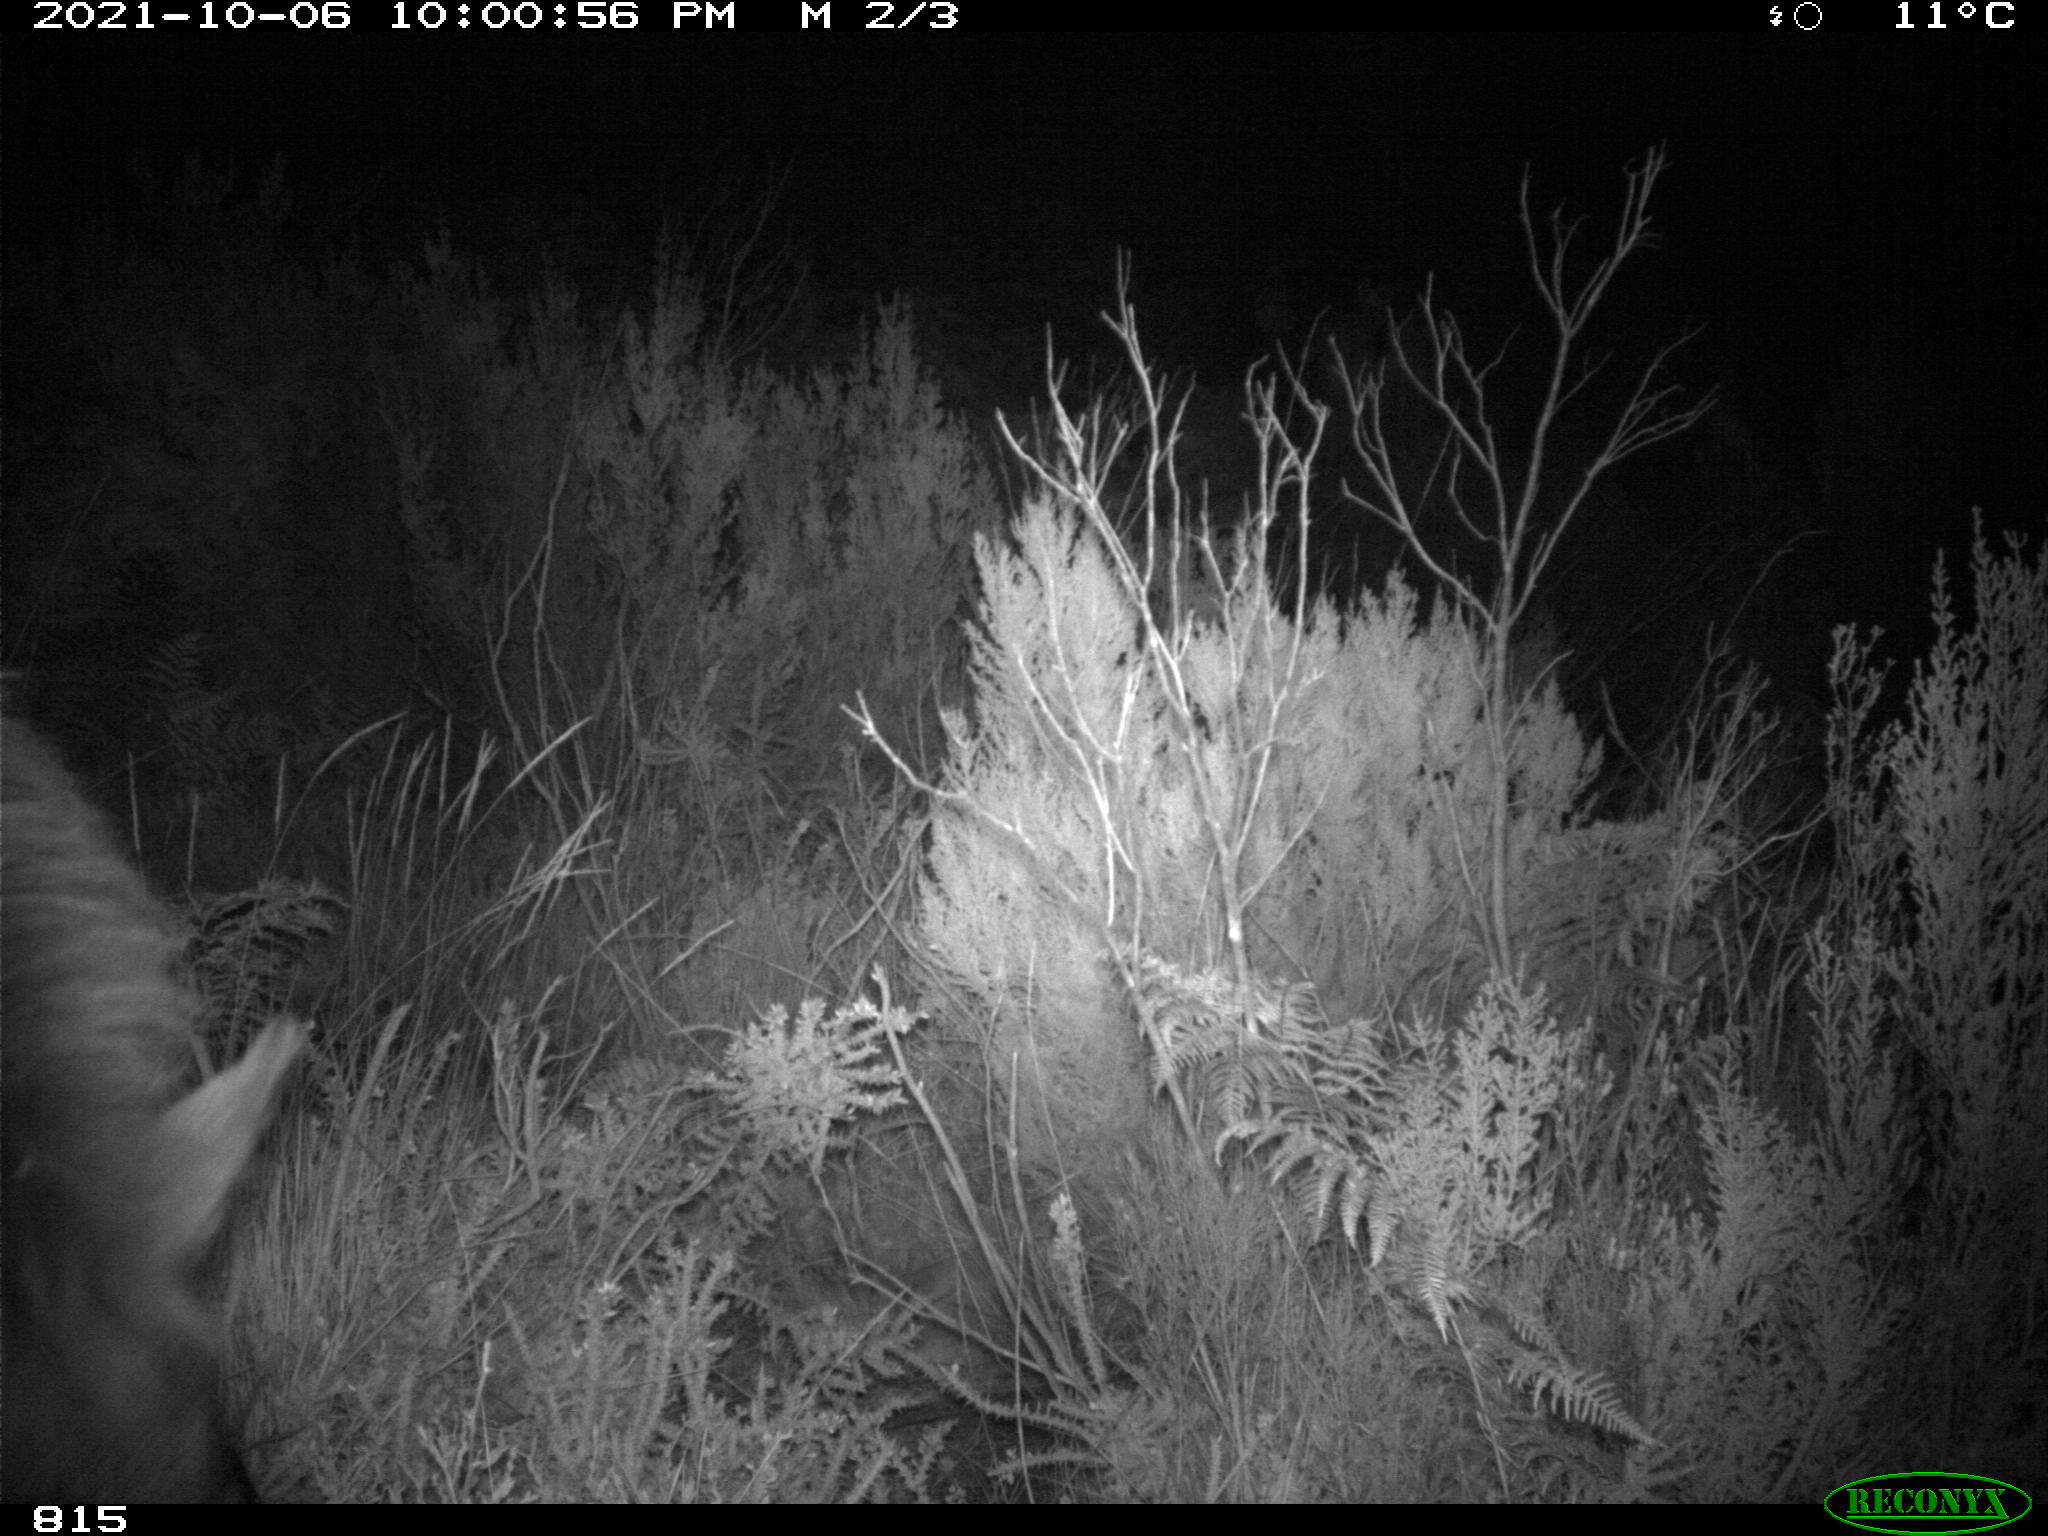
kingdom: Animalia
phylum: Chordata
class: Mammalia
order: Perissodactyla
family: Equidae
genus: Equus
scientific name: Equus caballus
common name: Horse
